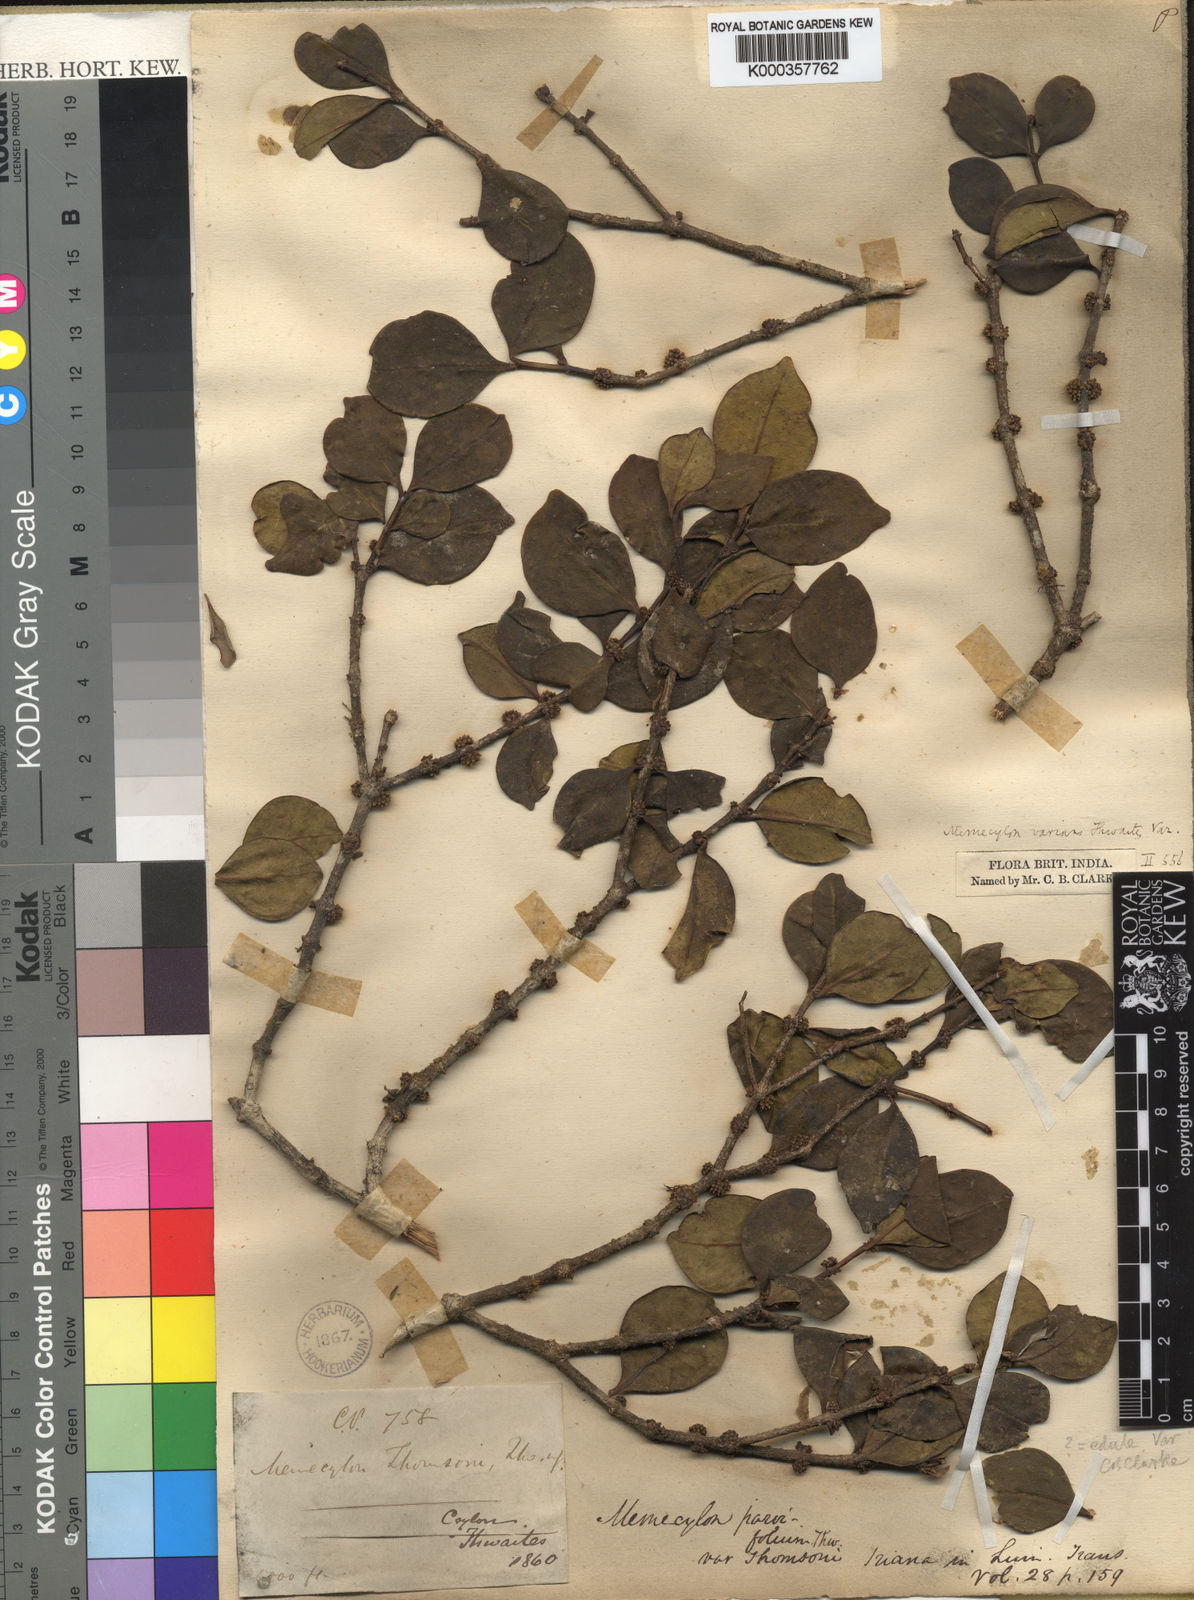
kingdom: Plantae
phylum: Tracheophyta
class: Magnoliopsida
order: Myrtales
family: Melastomataceae
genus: Memecylon
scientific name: Memecylon parvifolium
